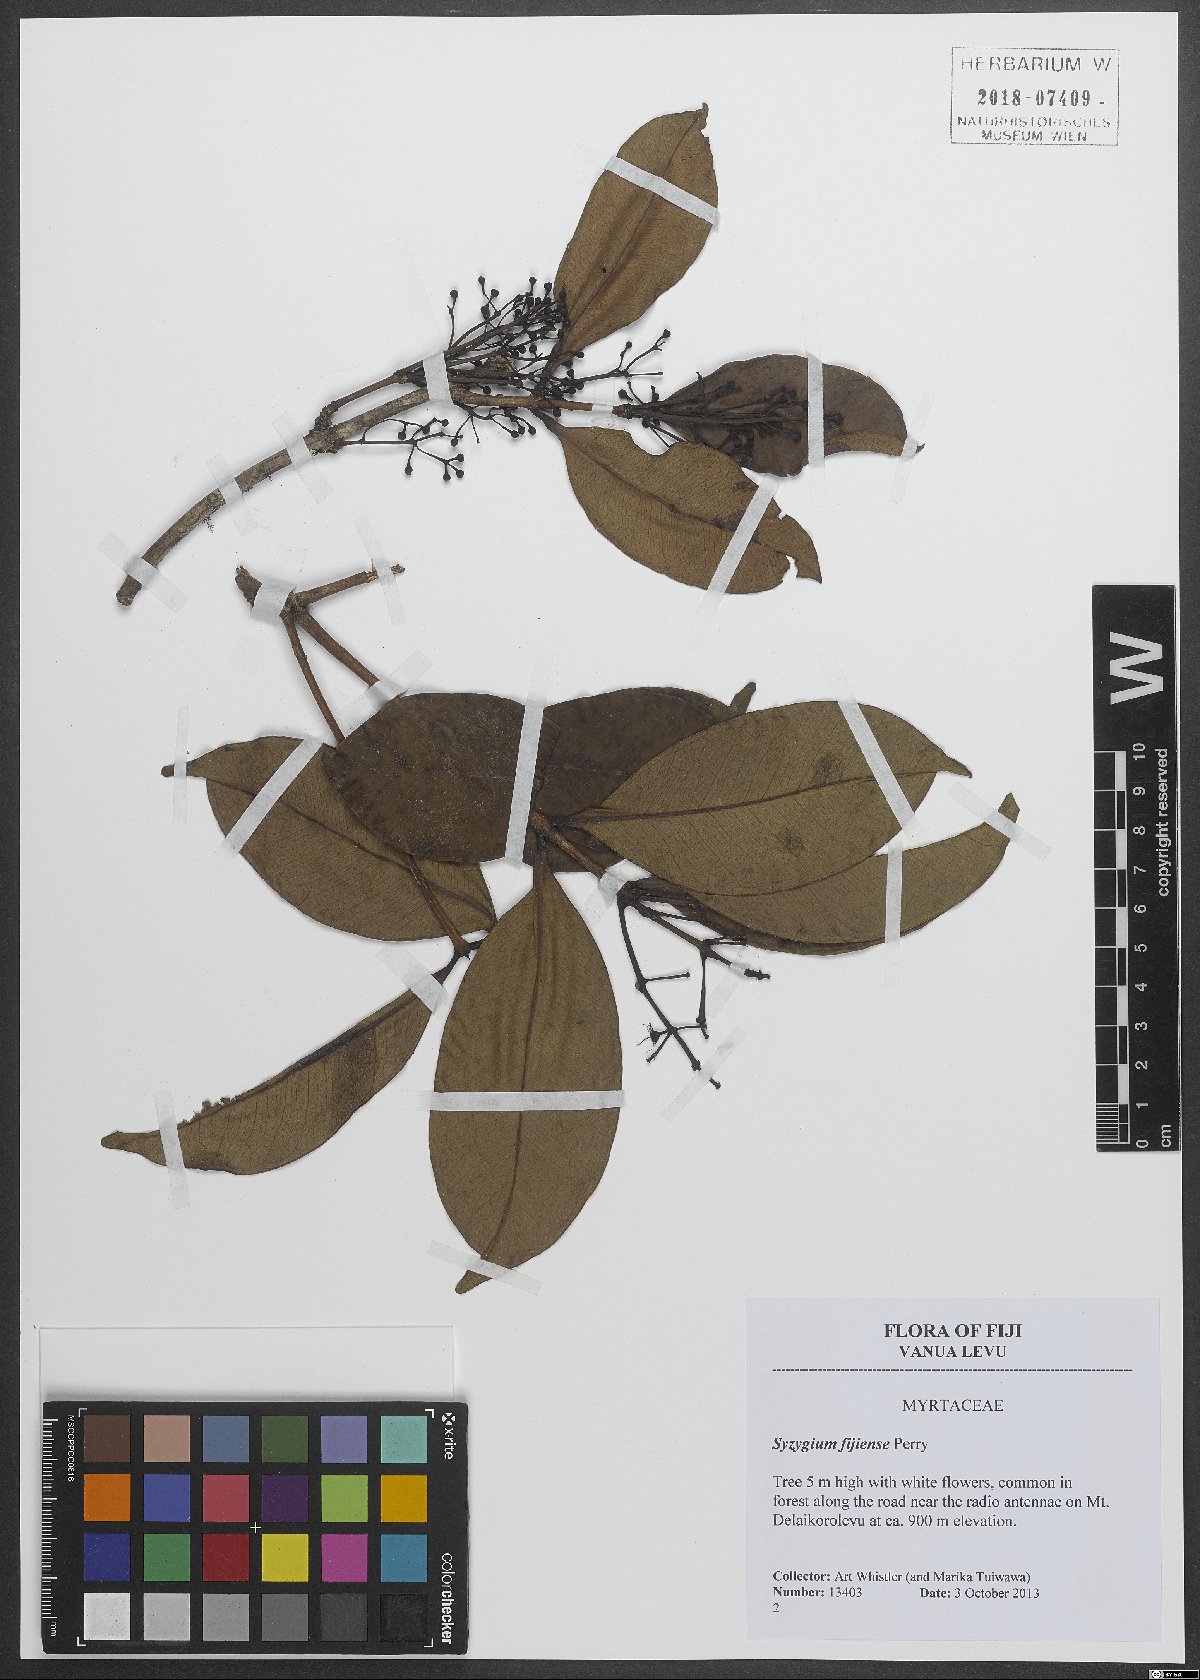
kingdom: Plantae
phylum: Tracheophyta
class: Magnoliopsida
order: Myrtales
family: Myrtaceae
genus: Syzygium
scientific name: Syzygium fijiense
